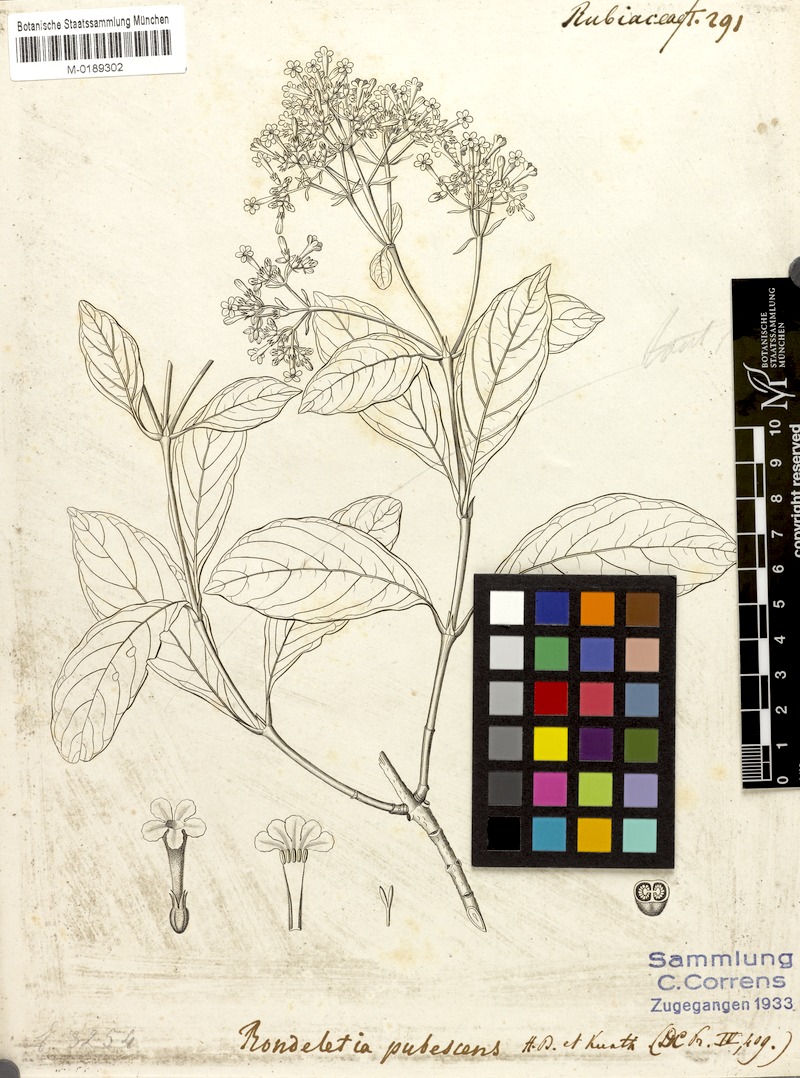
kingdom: Plantae
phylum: Tracheophyta
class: Magnoliopsida
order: Gentianales
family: Rubiaceae
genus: Rondeletia
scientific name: Rondeletia pubescens
